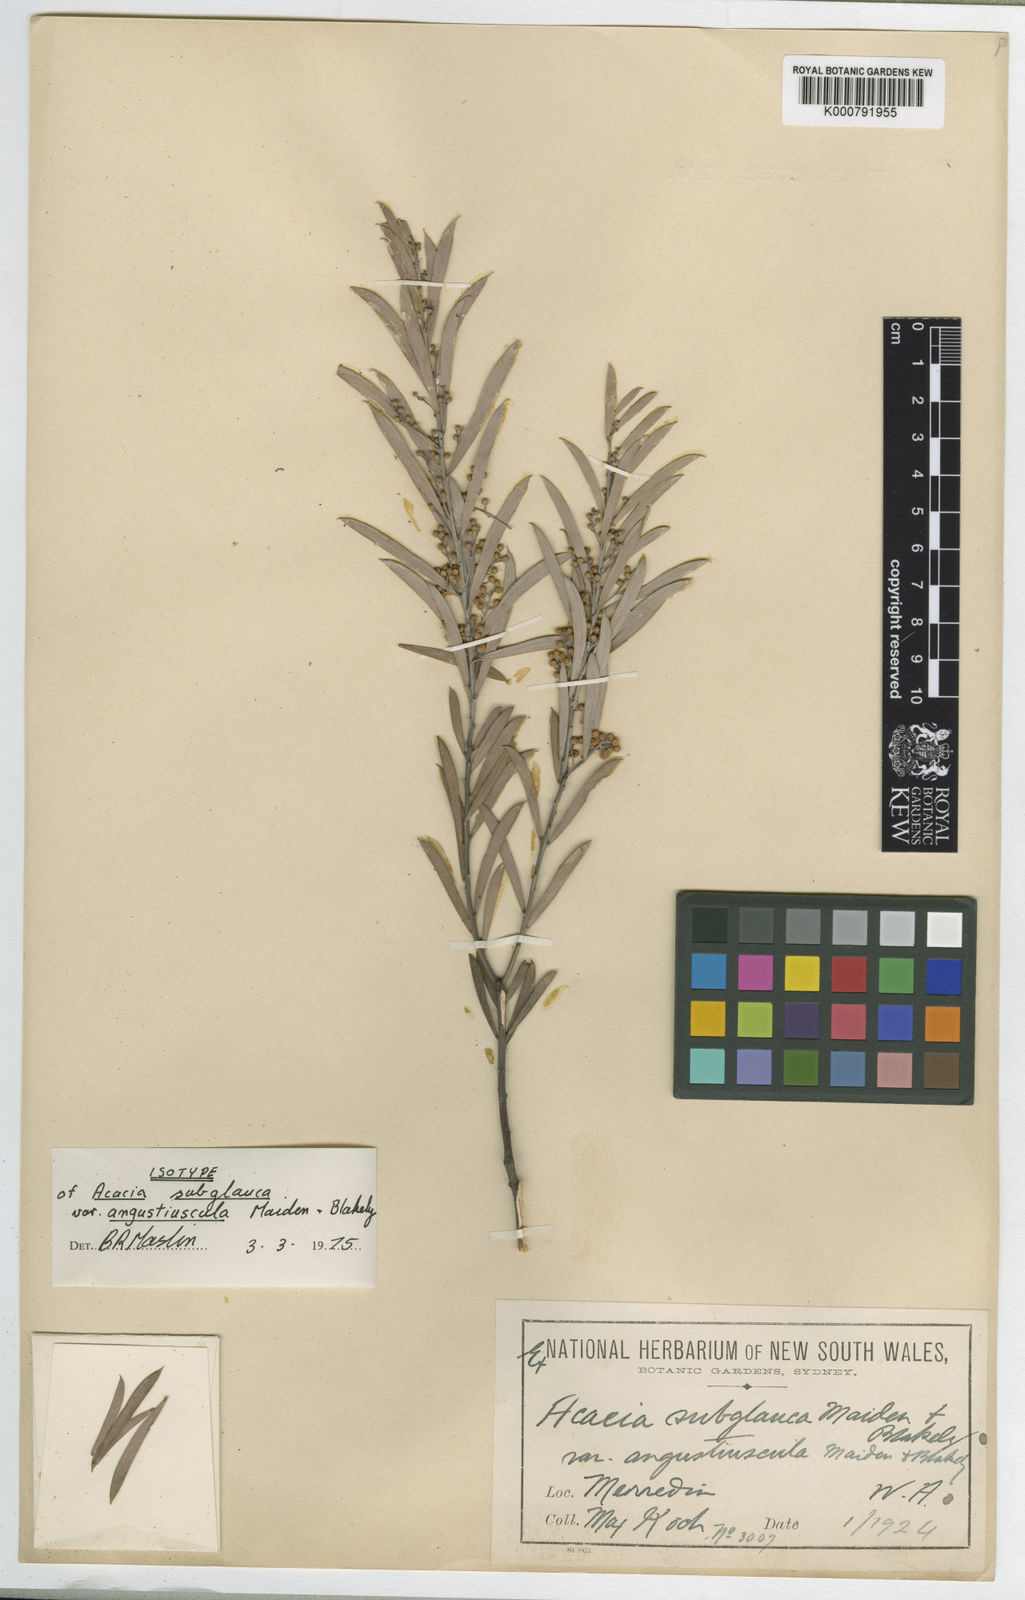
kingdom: Plantae
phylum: Tracheophyta
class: Magnoliopsida
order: Fabales
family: Fabaceae
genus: Acacia
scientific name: Acacia leptopetala
